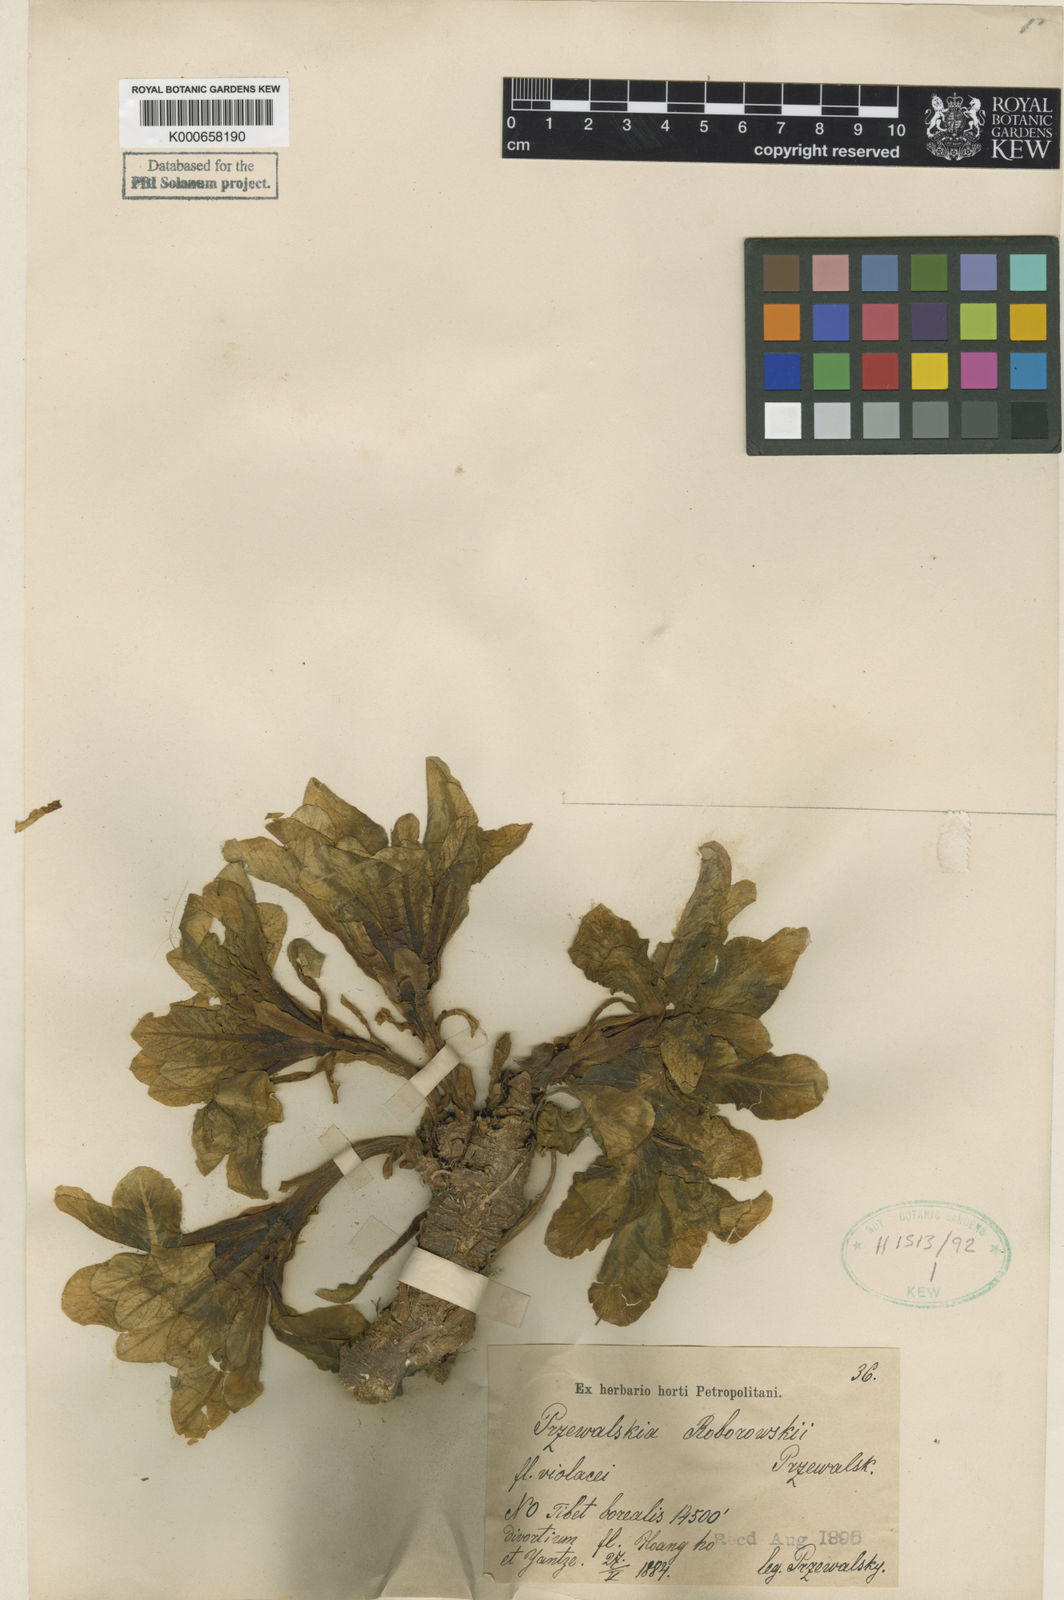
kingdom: Plantae
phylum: Tracheophyta
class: Magnoliopsida
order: Solanales
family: Solanaceae
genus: Przewalskia
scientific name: Przewalskia tangutica
